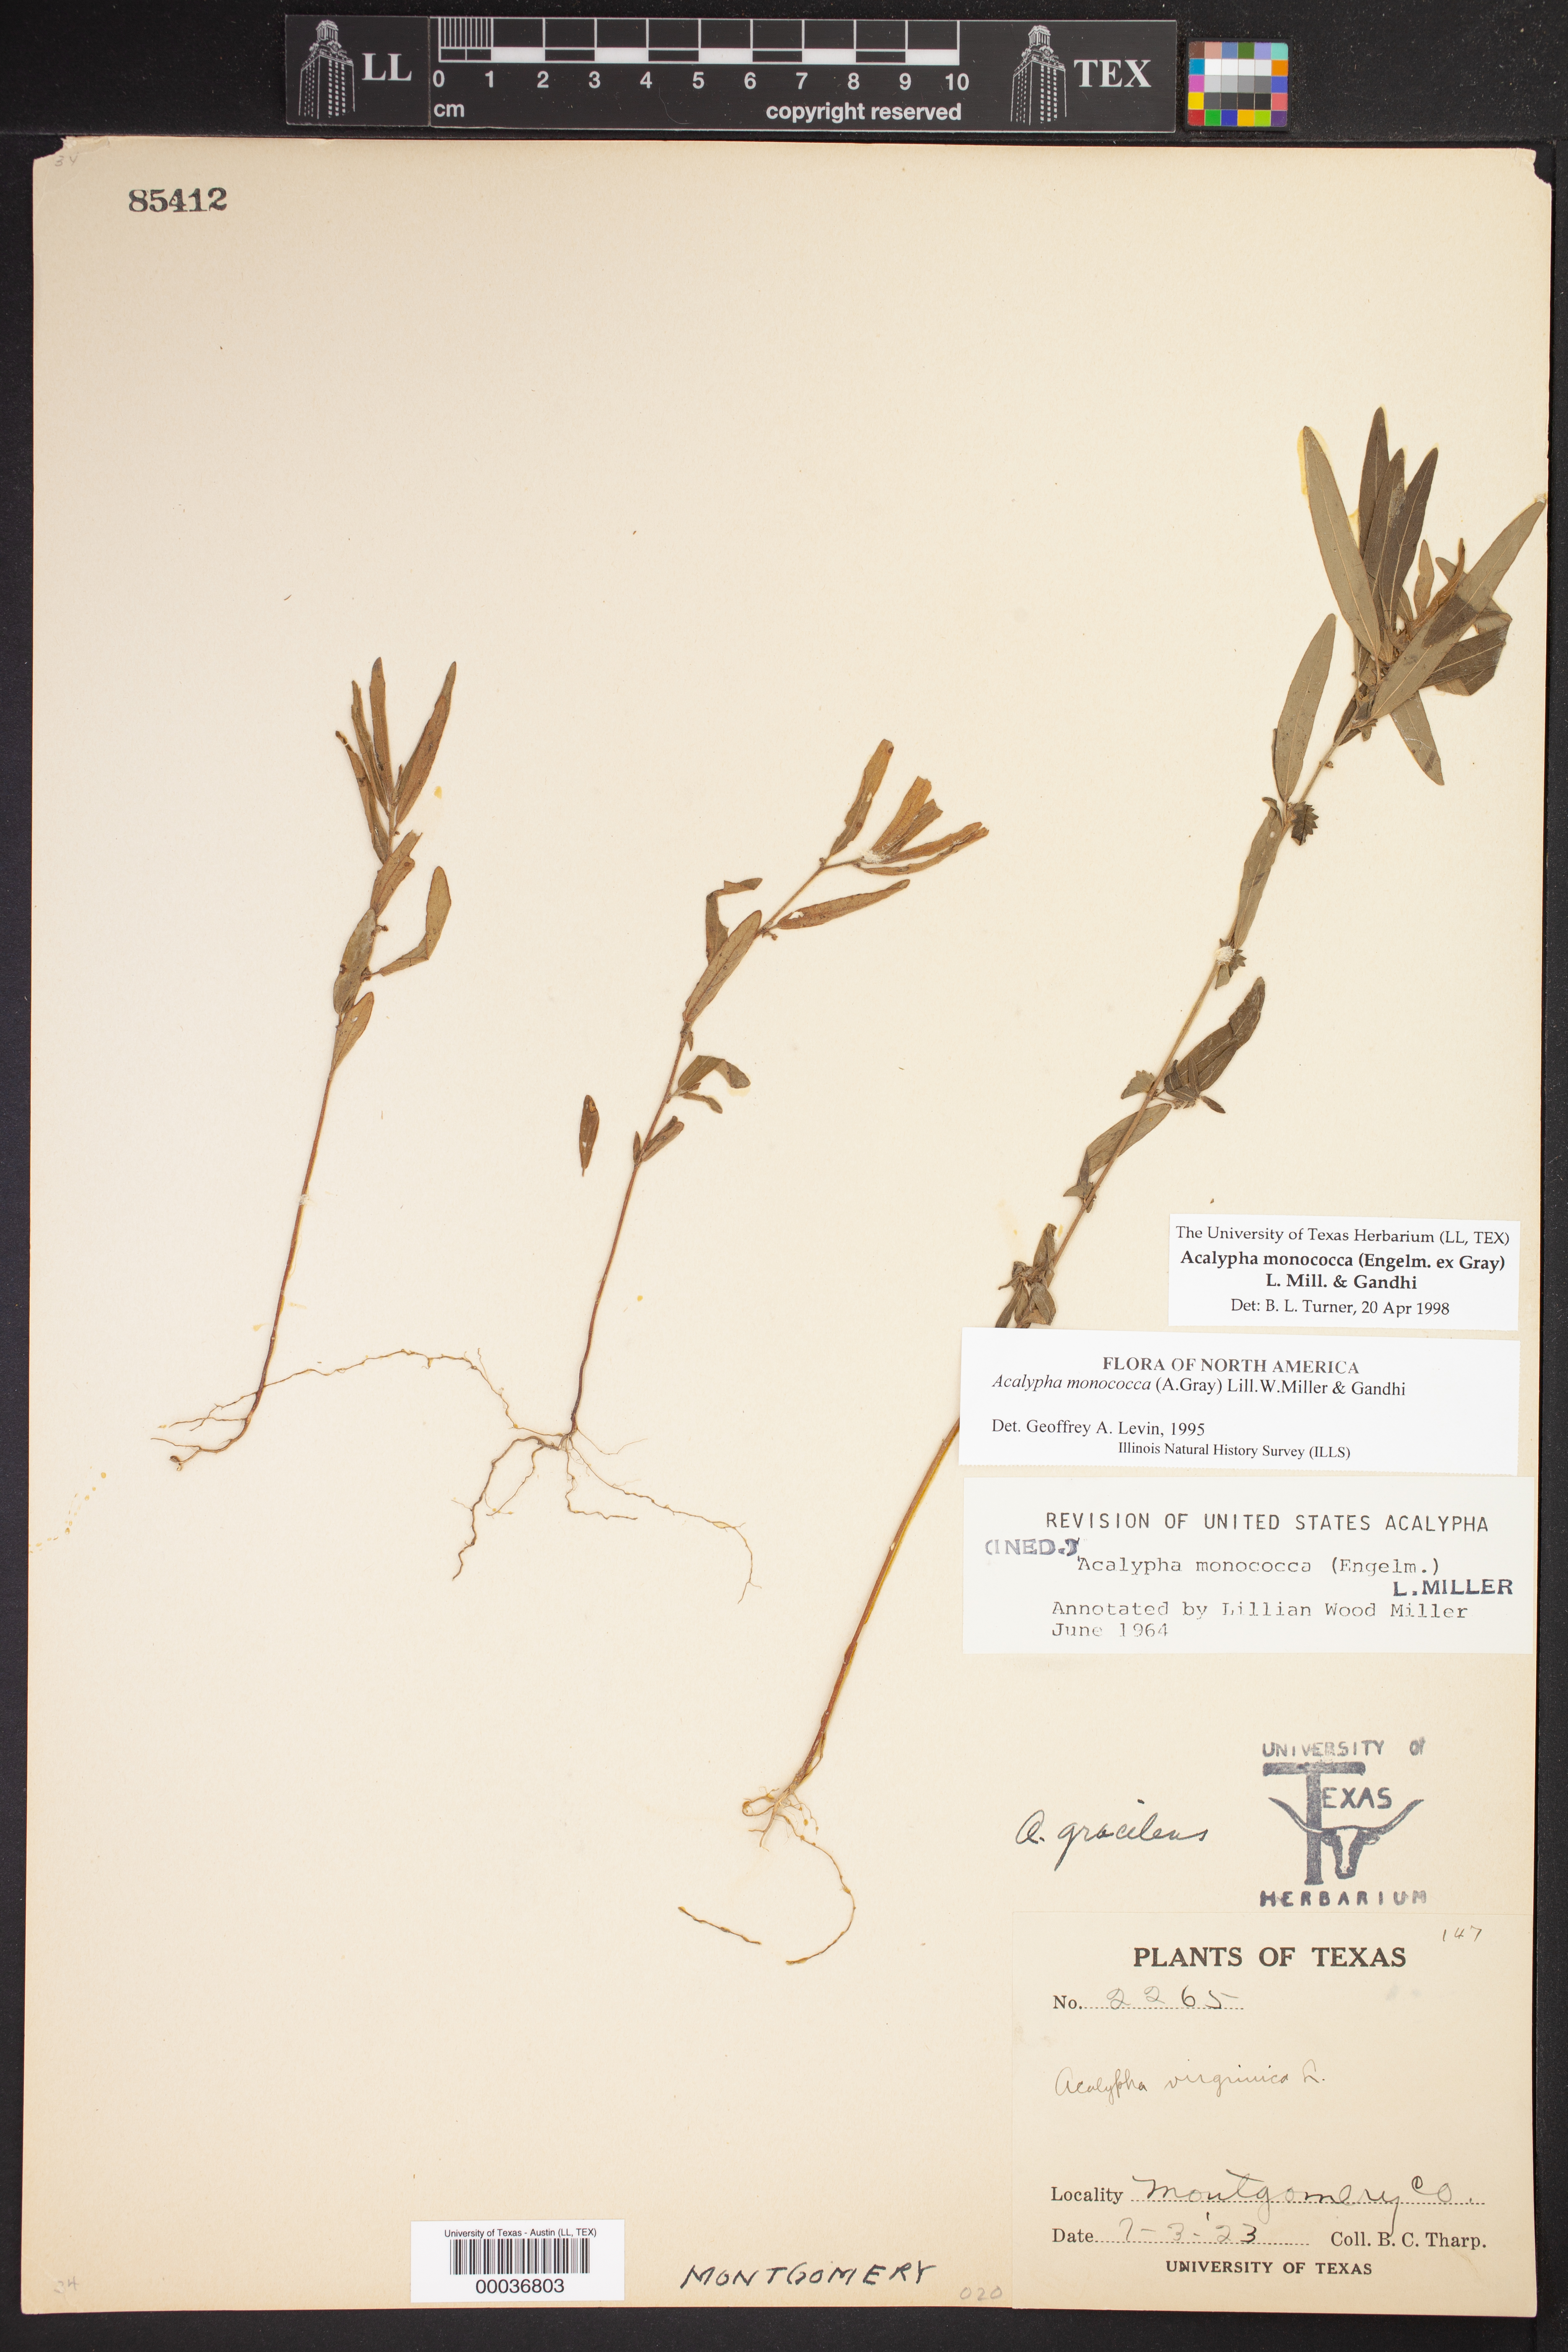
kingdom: Plantae
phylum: Tracheophyta
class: Magnoliopsida
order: Malpighiales
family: Euphorbiaceae
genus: Acalypha
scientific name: Acalypha monococca
